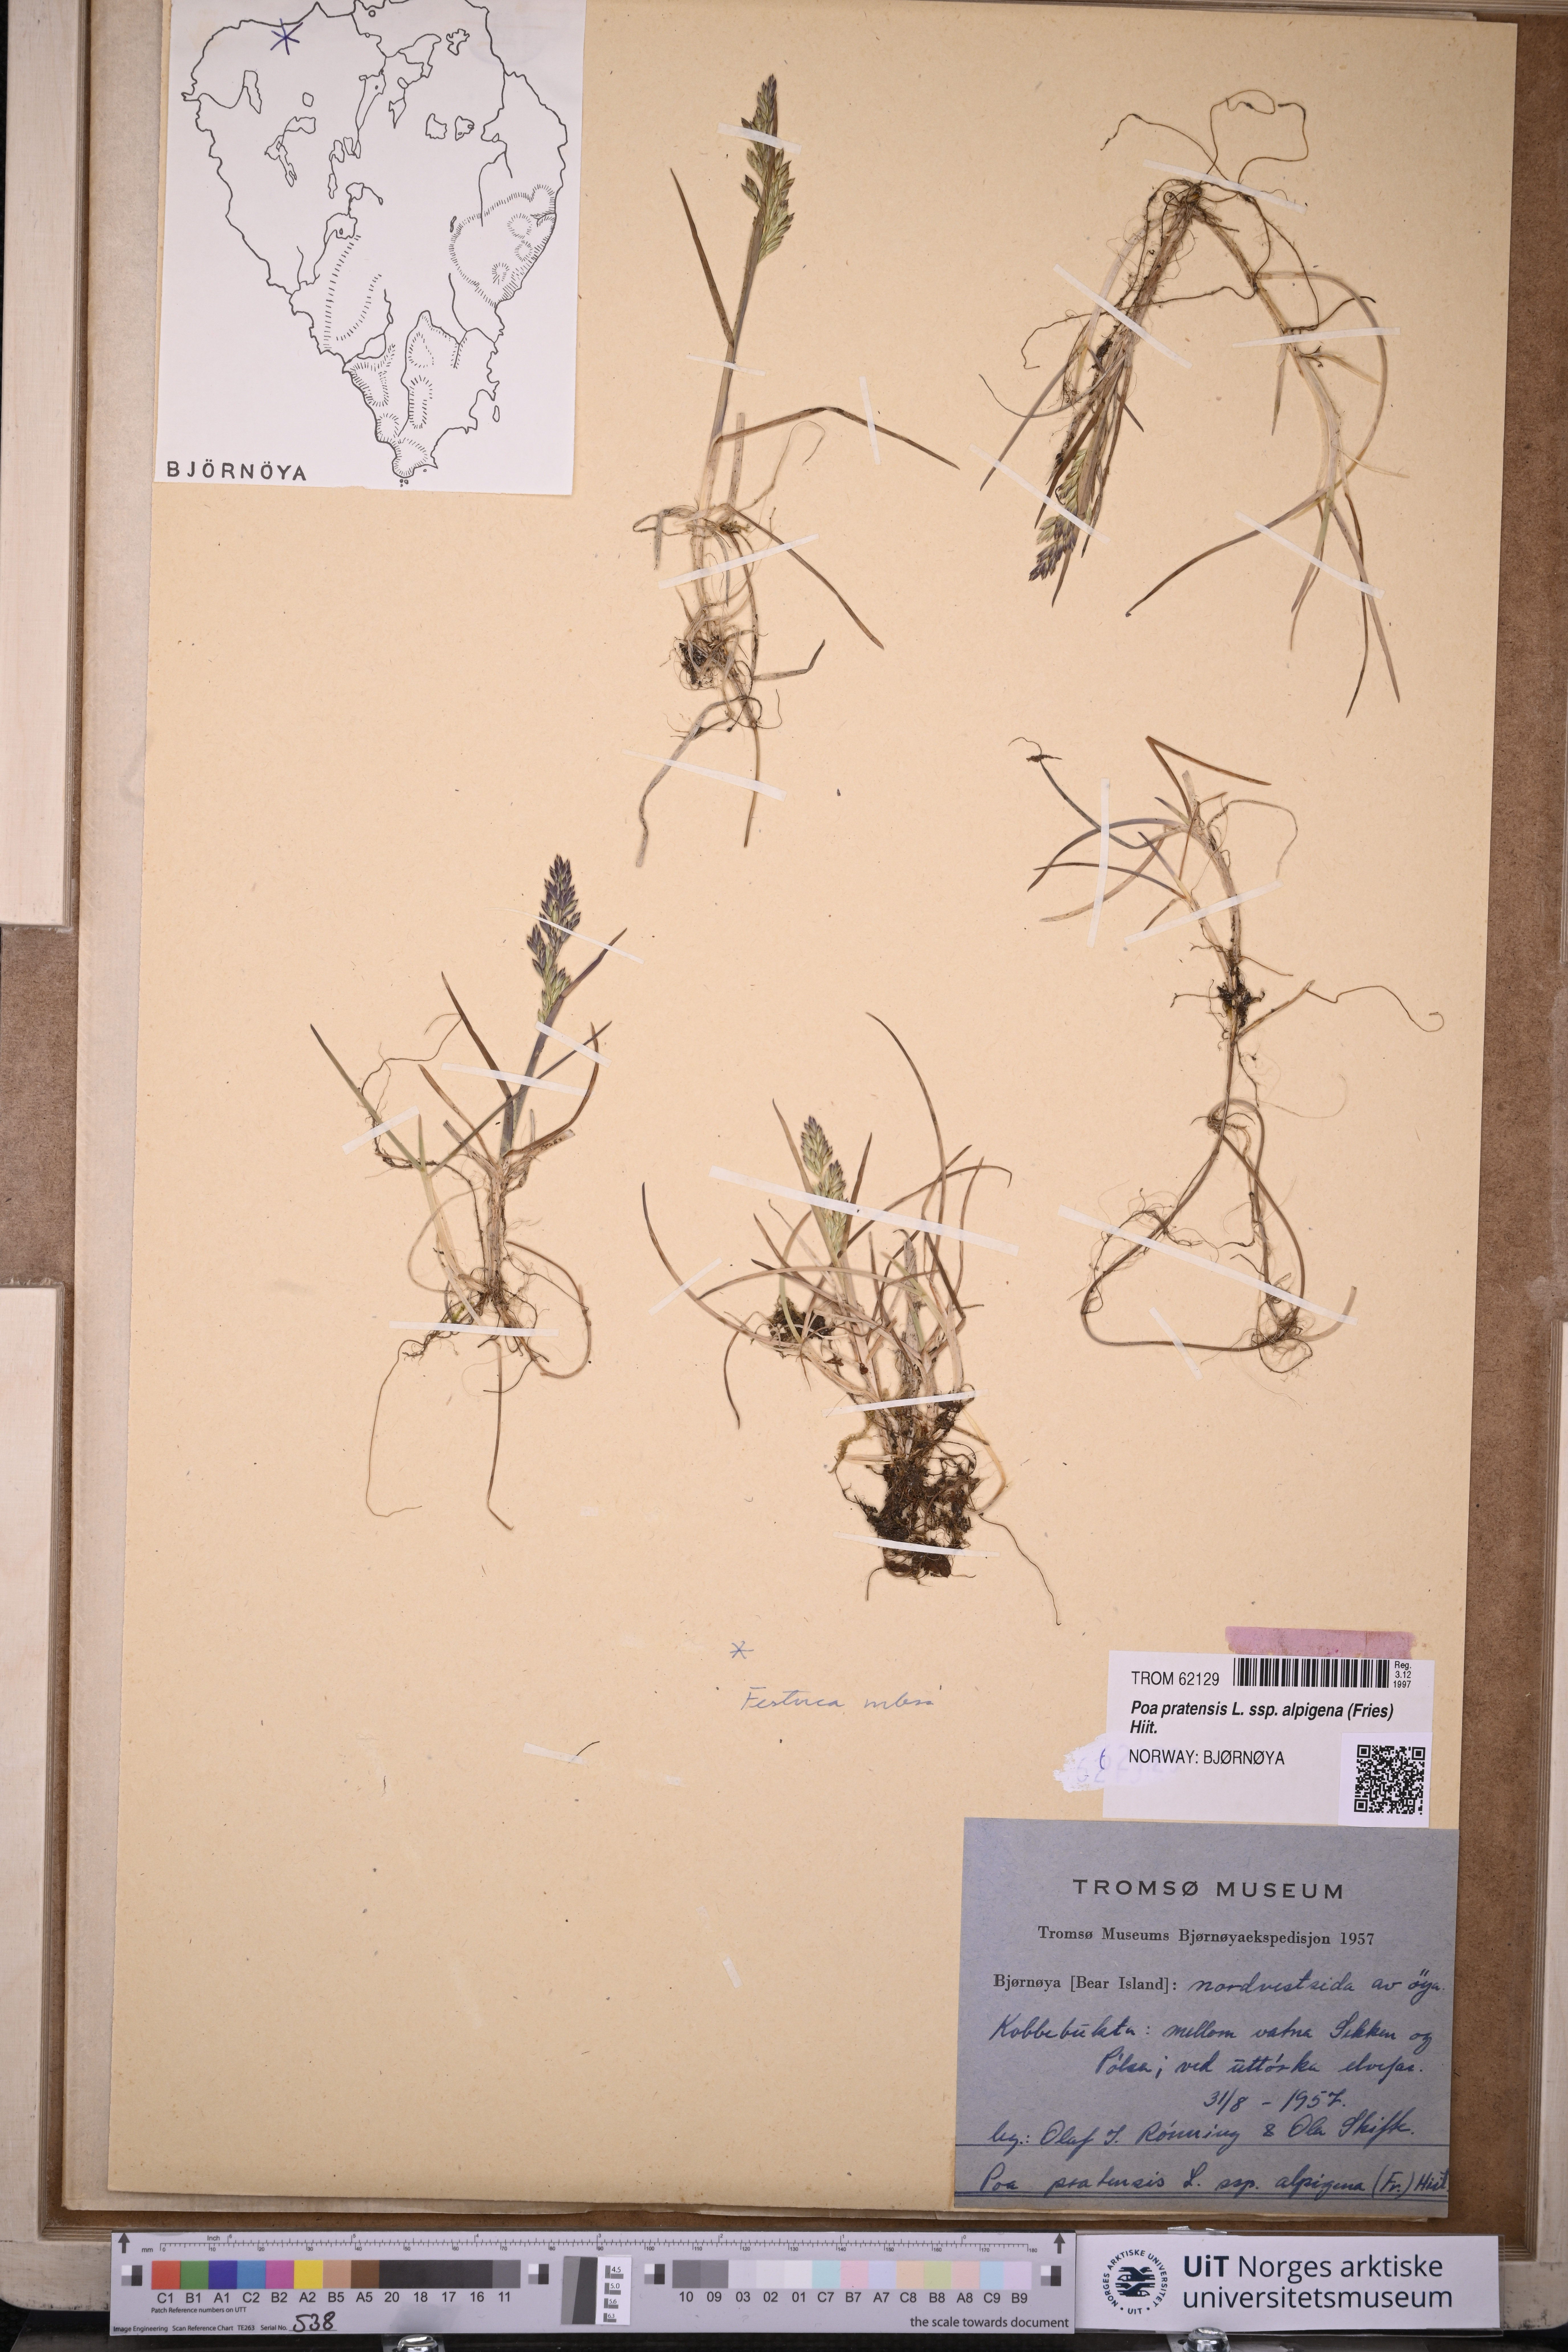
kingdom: Plantae
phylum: Tracheophyta
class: Liliopsida
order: Poales
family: Poaceae
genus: Poa
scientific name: Poa alpigena
